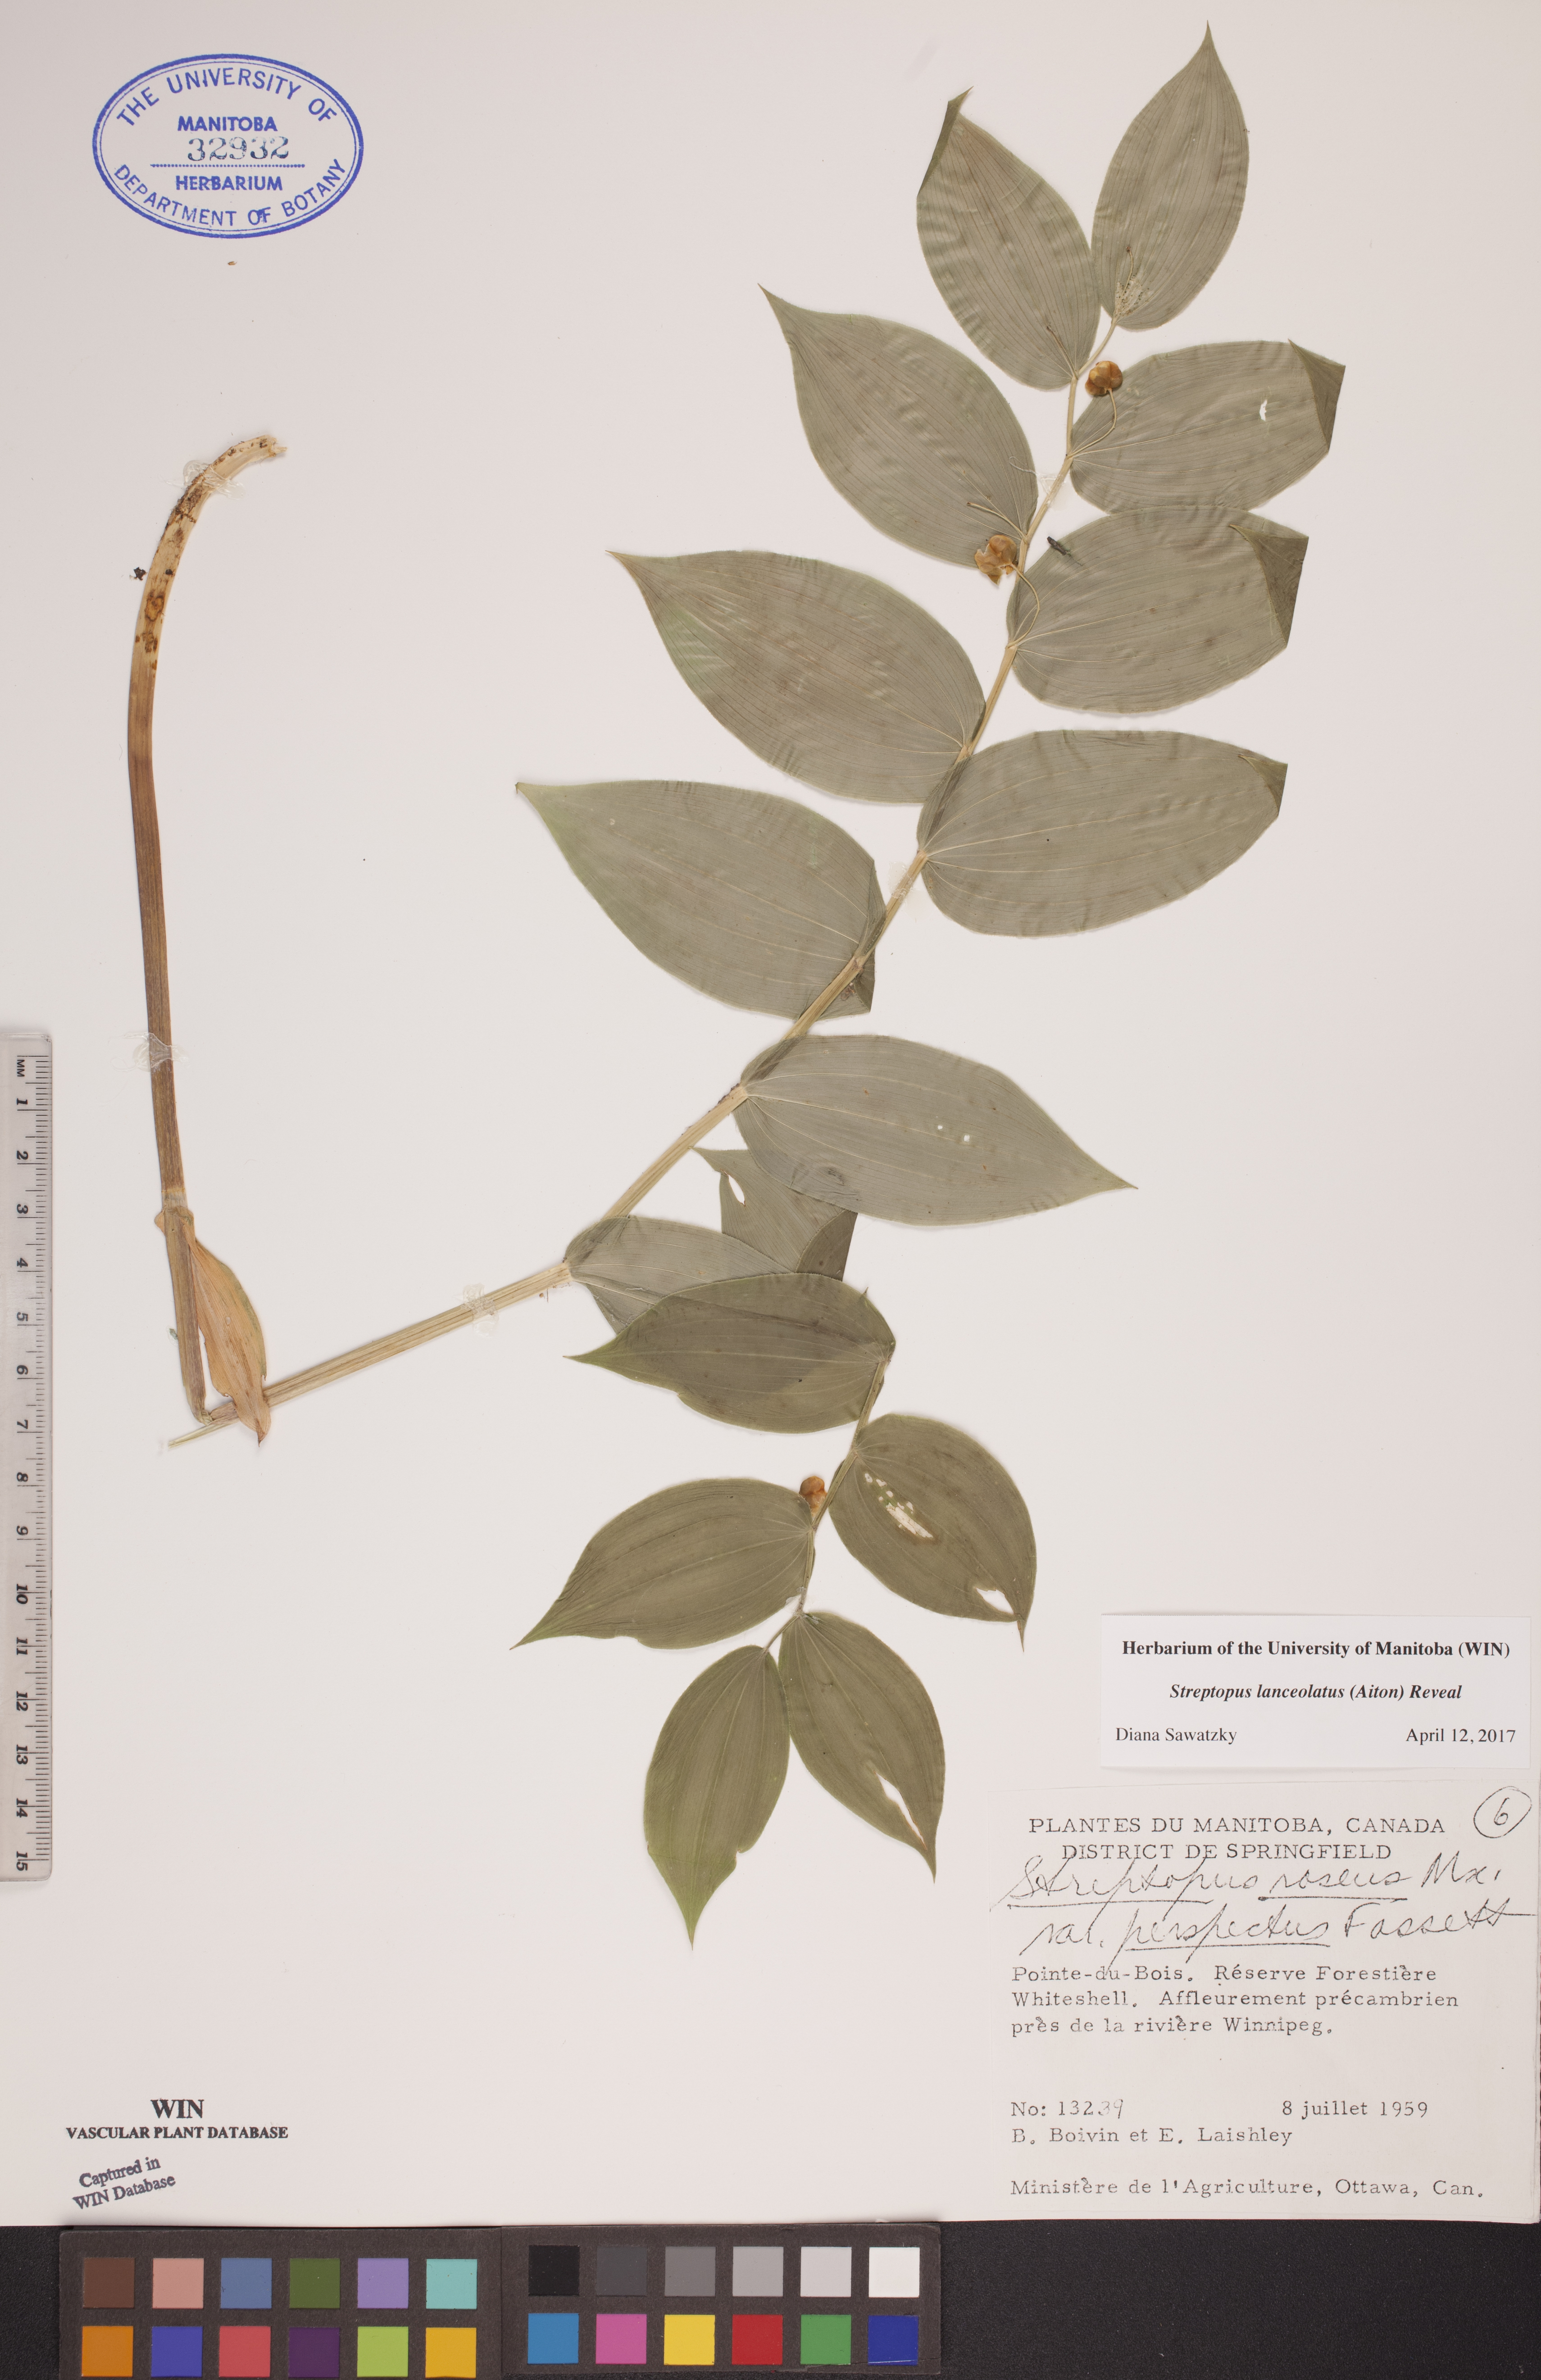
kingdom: Plantae
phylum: Tracheophyta
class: Liliopsida
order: Liliales
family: Liliaceae
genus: Streptopus
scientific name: Streptopus lanceolatus
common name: Rose mandarin
